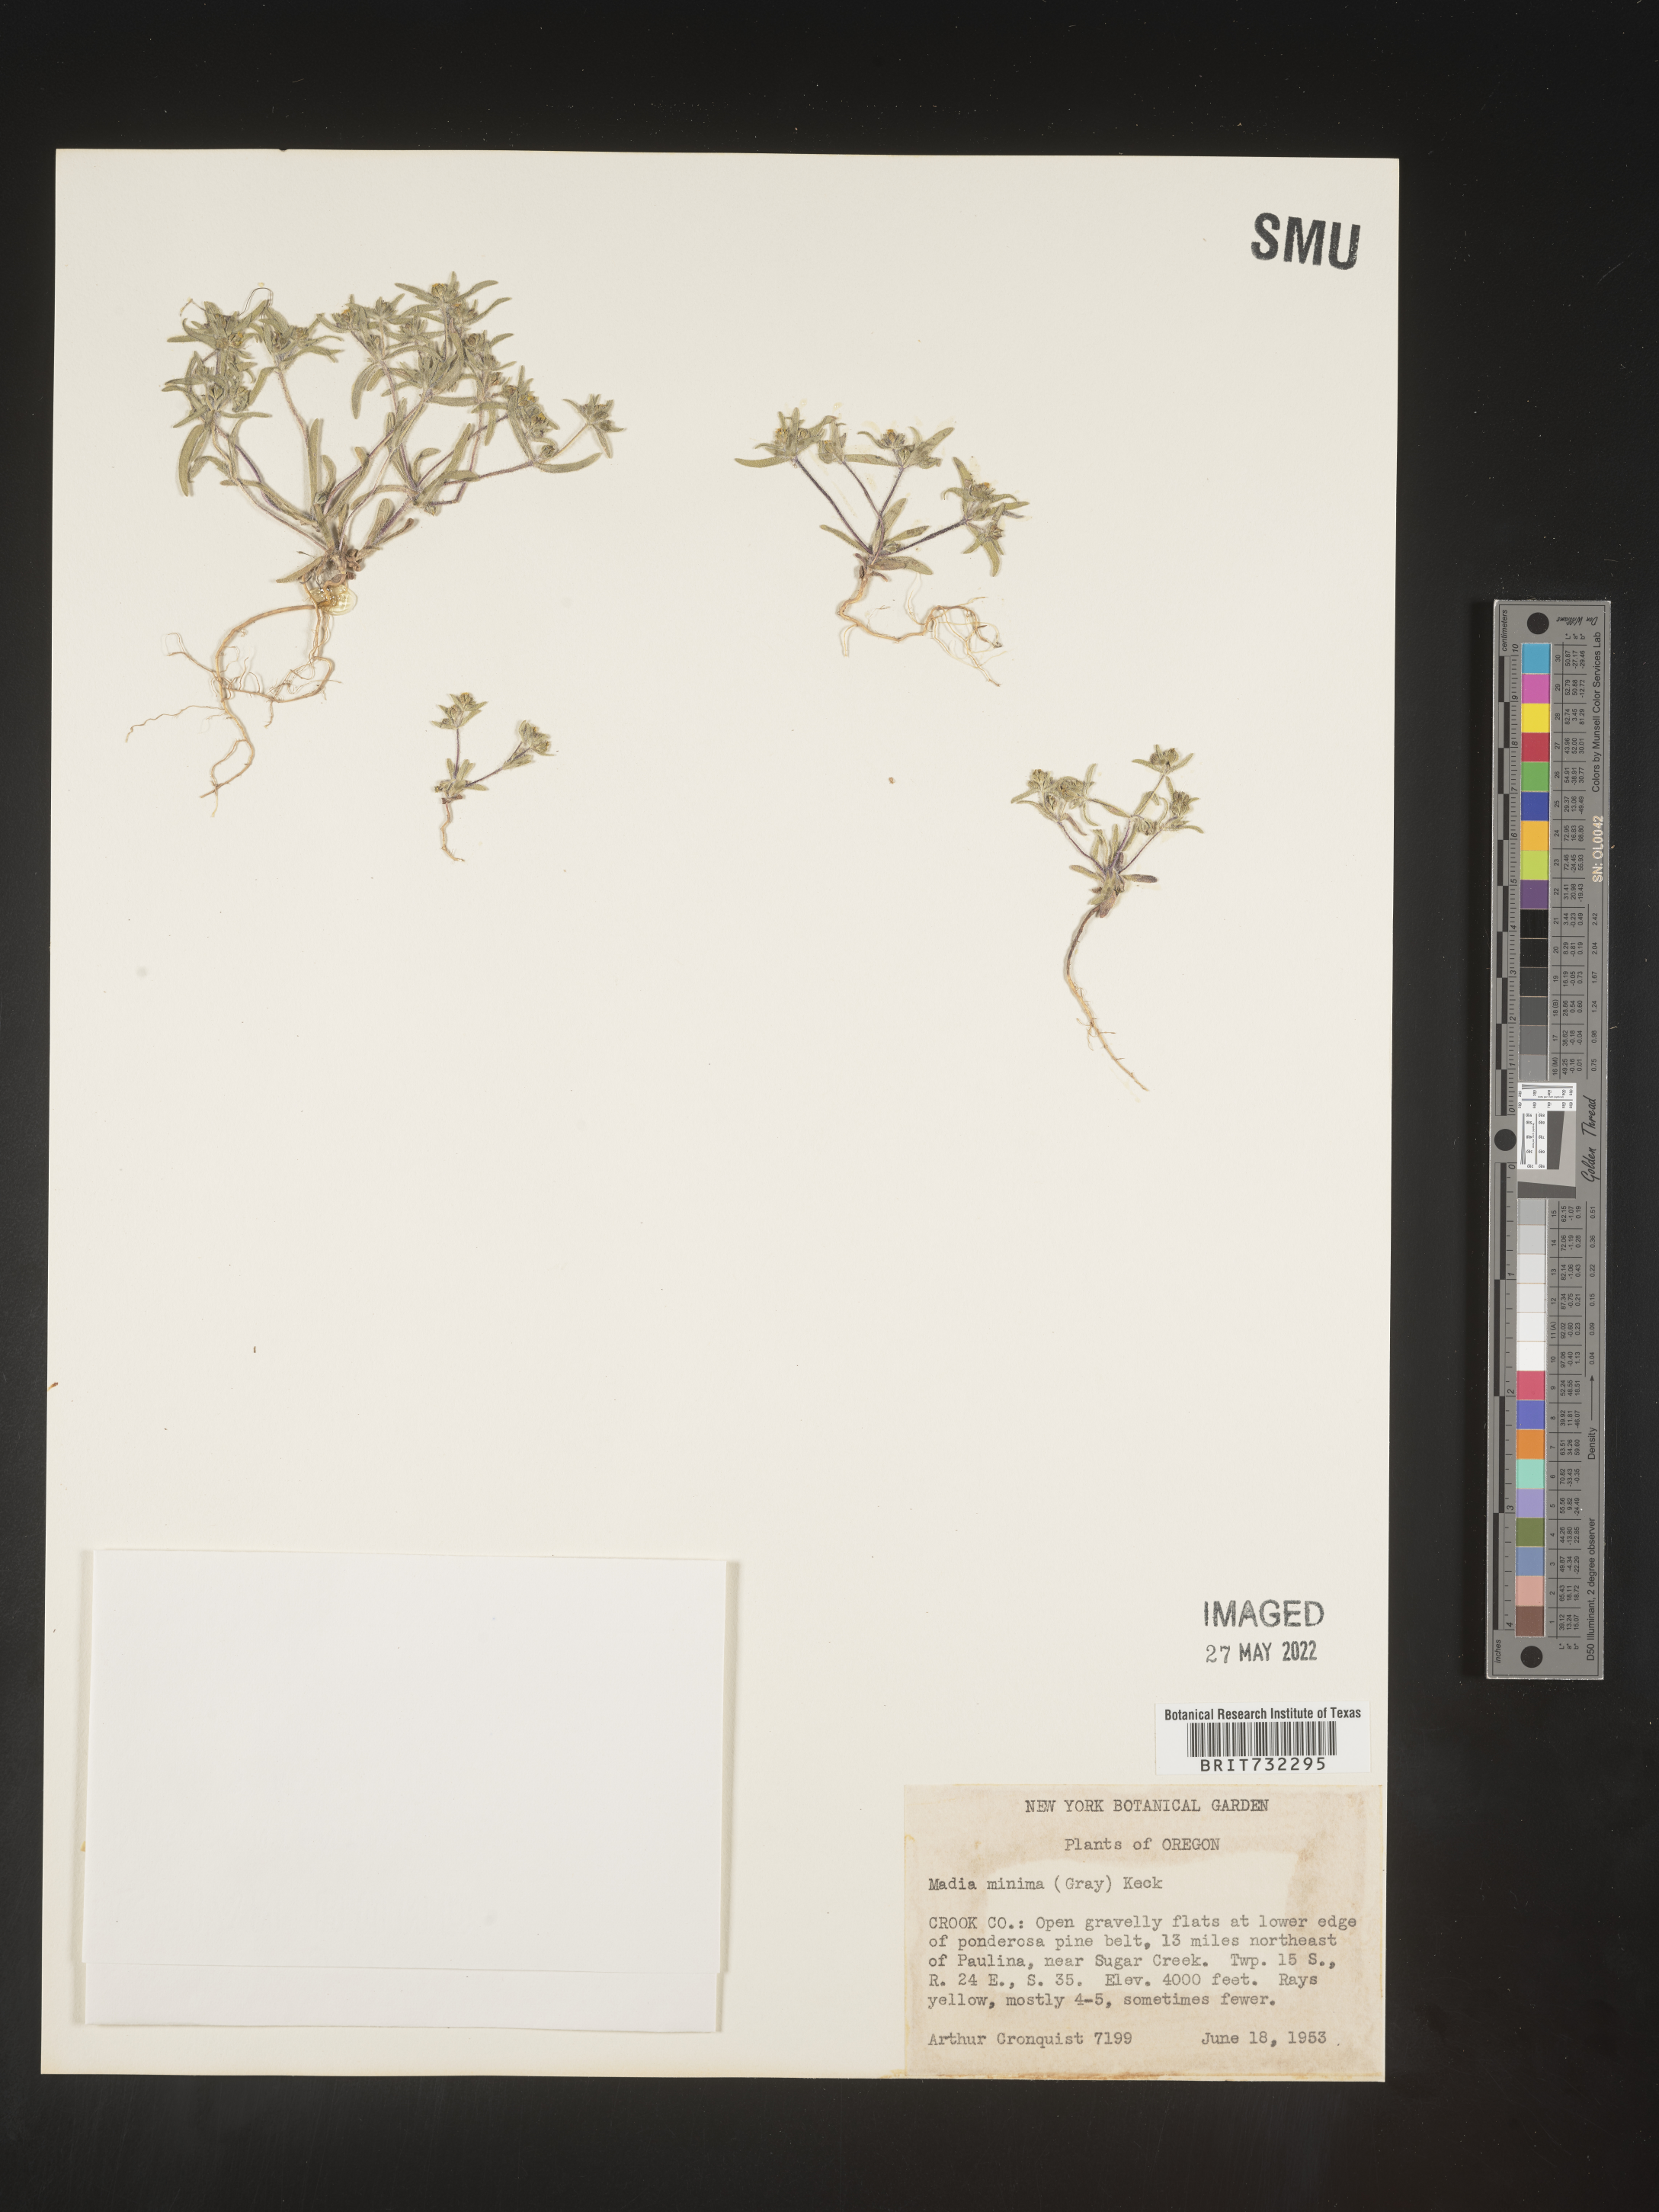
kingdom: Plantae
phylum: Tracheophyta
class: Magnoliopsida
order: Asterales
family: Asteraceae
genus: Madia
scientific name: Madia
